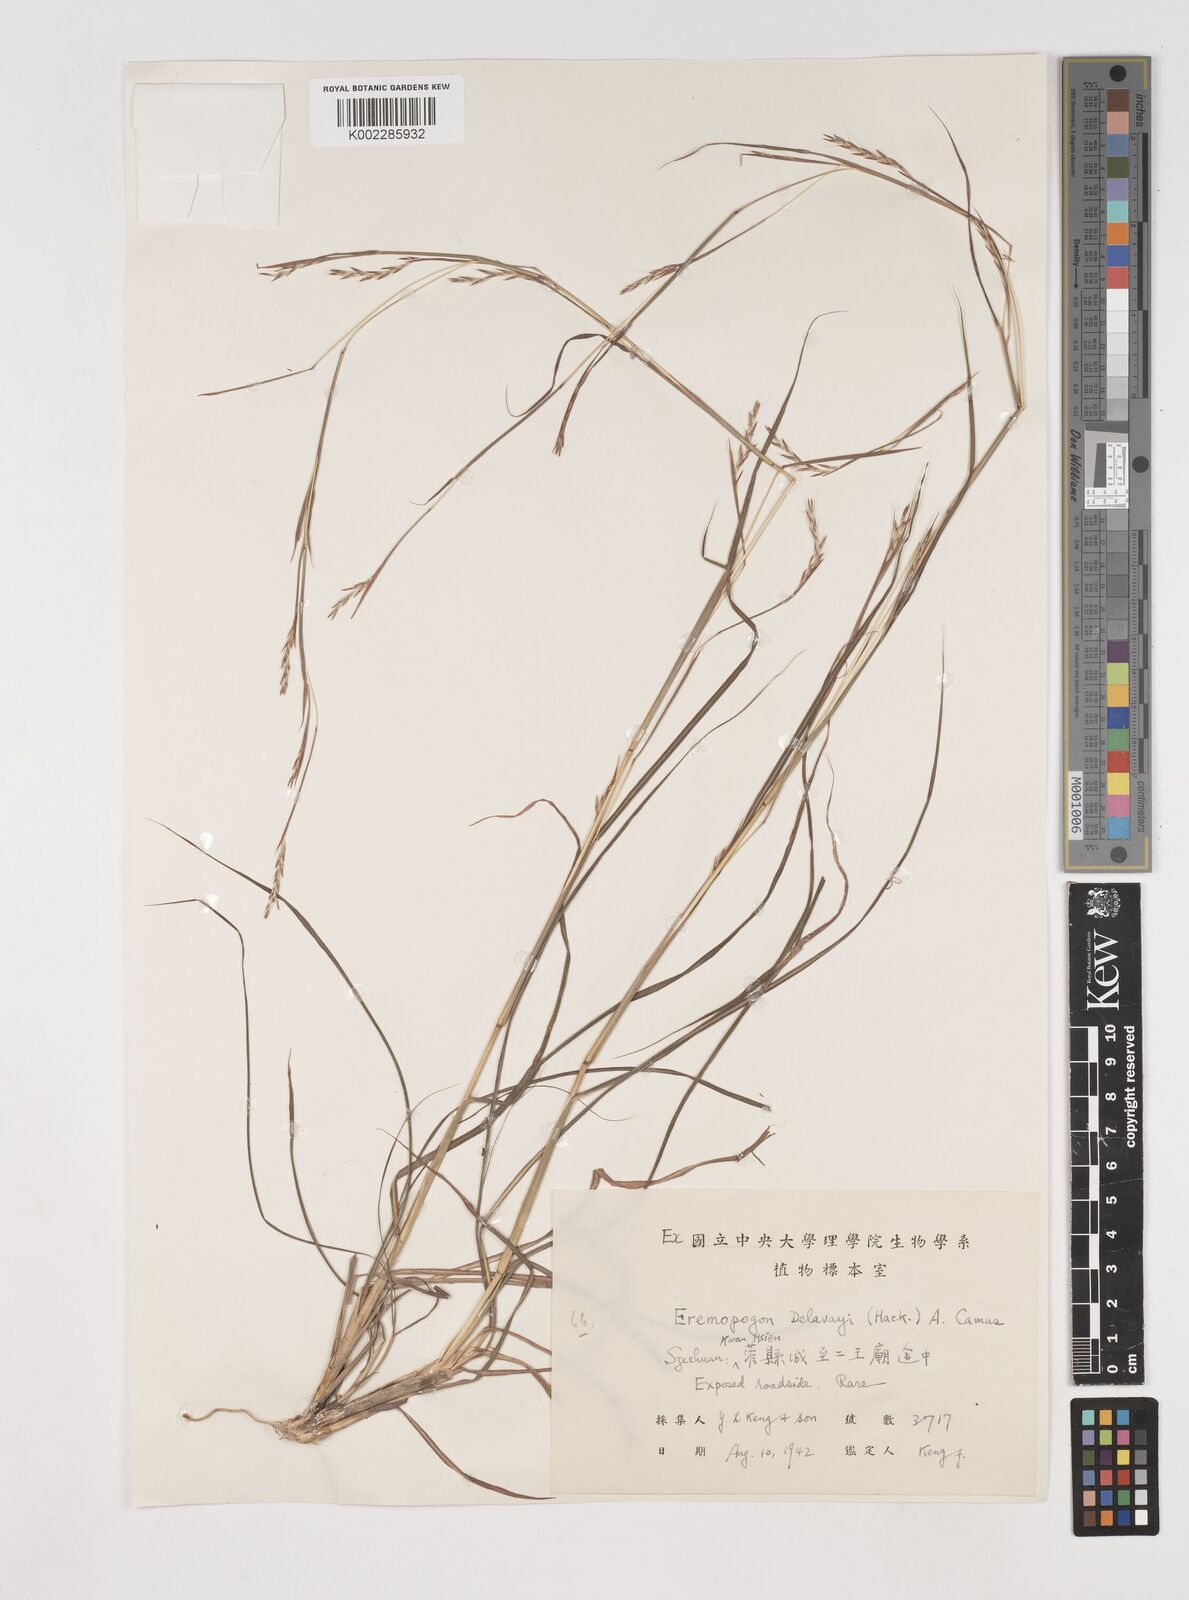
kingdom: Plantae
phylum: Tracheophyta
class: Liliopsida
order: Poales
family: Poaceae
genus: Schizachyrium
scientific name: Schizachyrium delavayi
